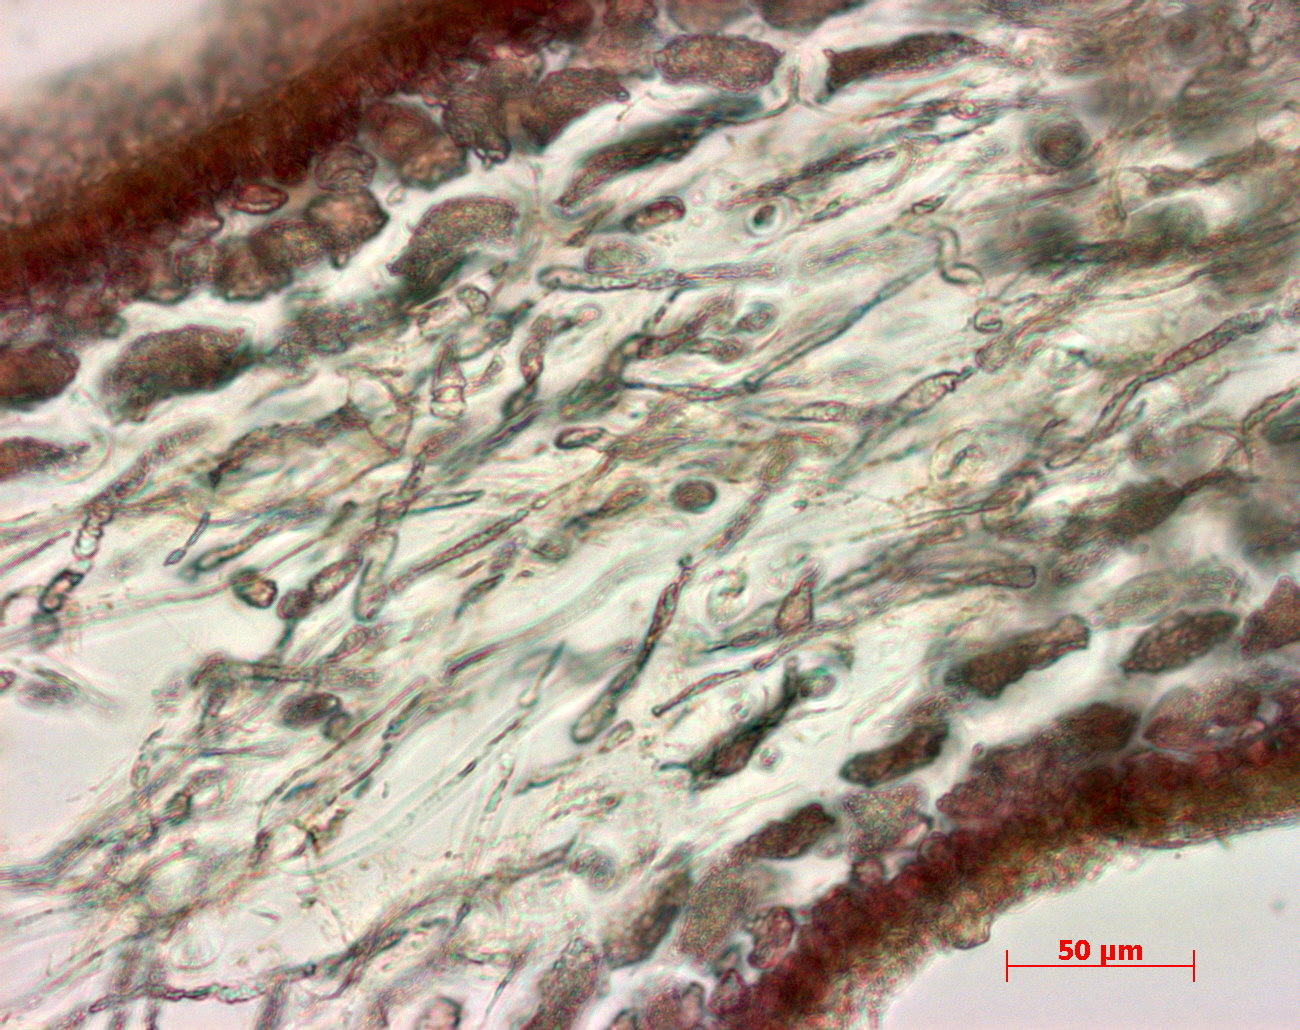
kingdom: Plantae
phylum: Rhodophyta
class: Florideophyceae
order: Gigartinales
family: Kallymeniaceae
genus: Psaromenia
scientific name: Psaromenia berggrenii
